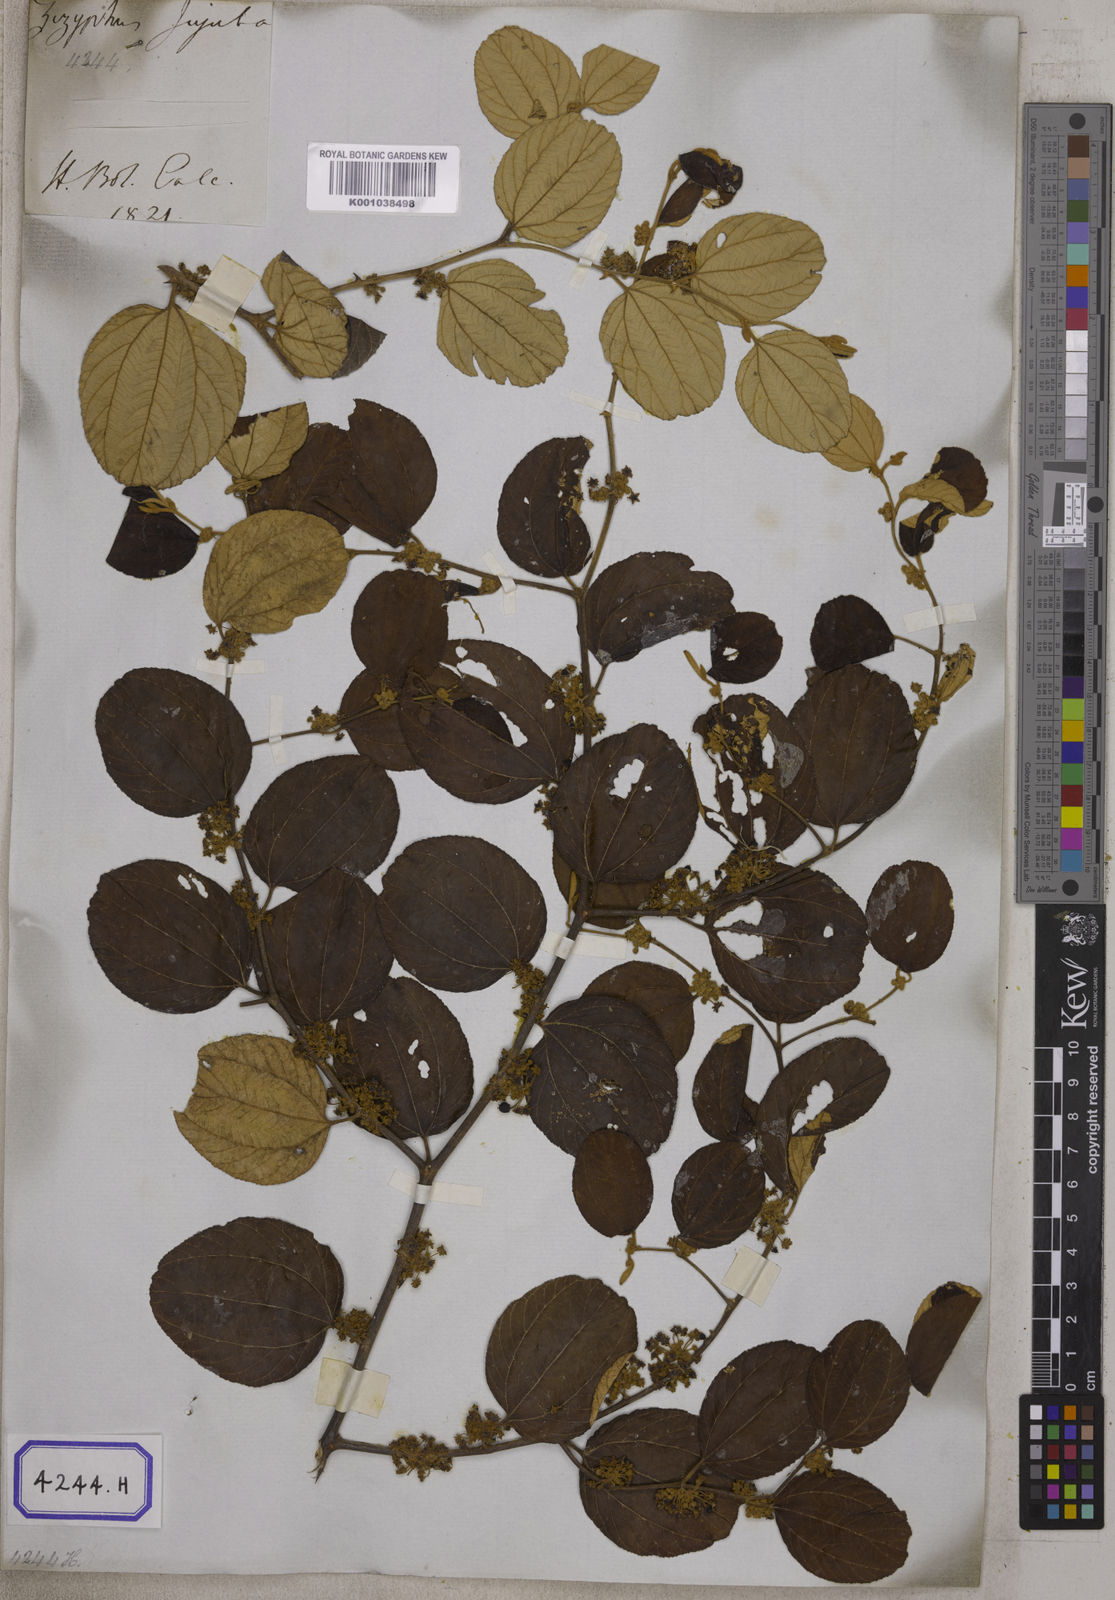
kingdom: Plantae
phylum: Tracheophyta
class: Magnoliopsida
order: Rosales
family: Rhamnaceae
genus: Ziziphus
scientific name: Ziziphus
